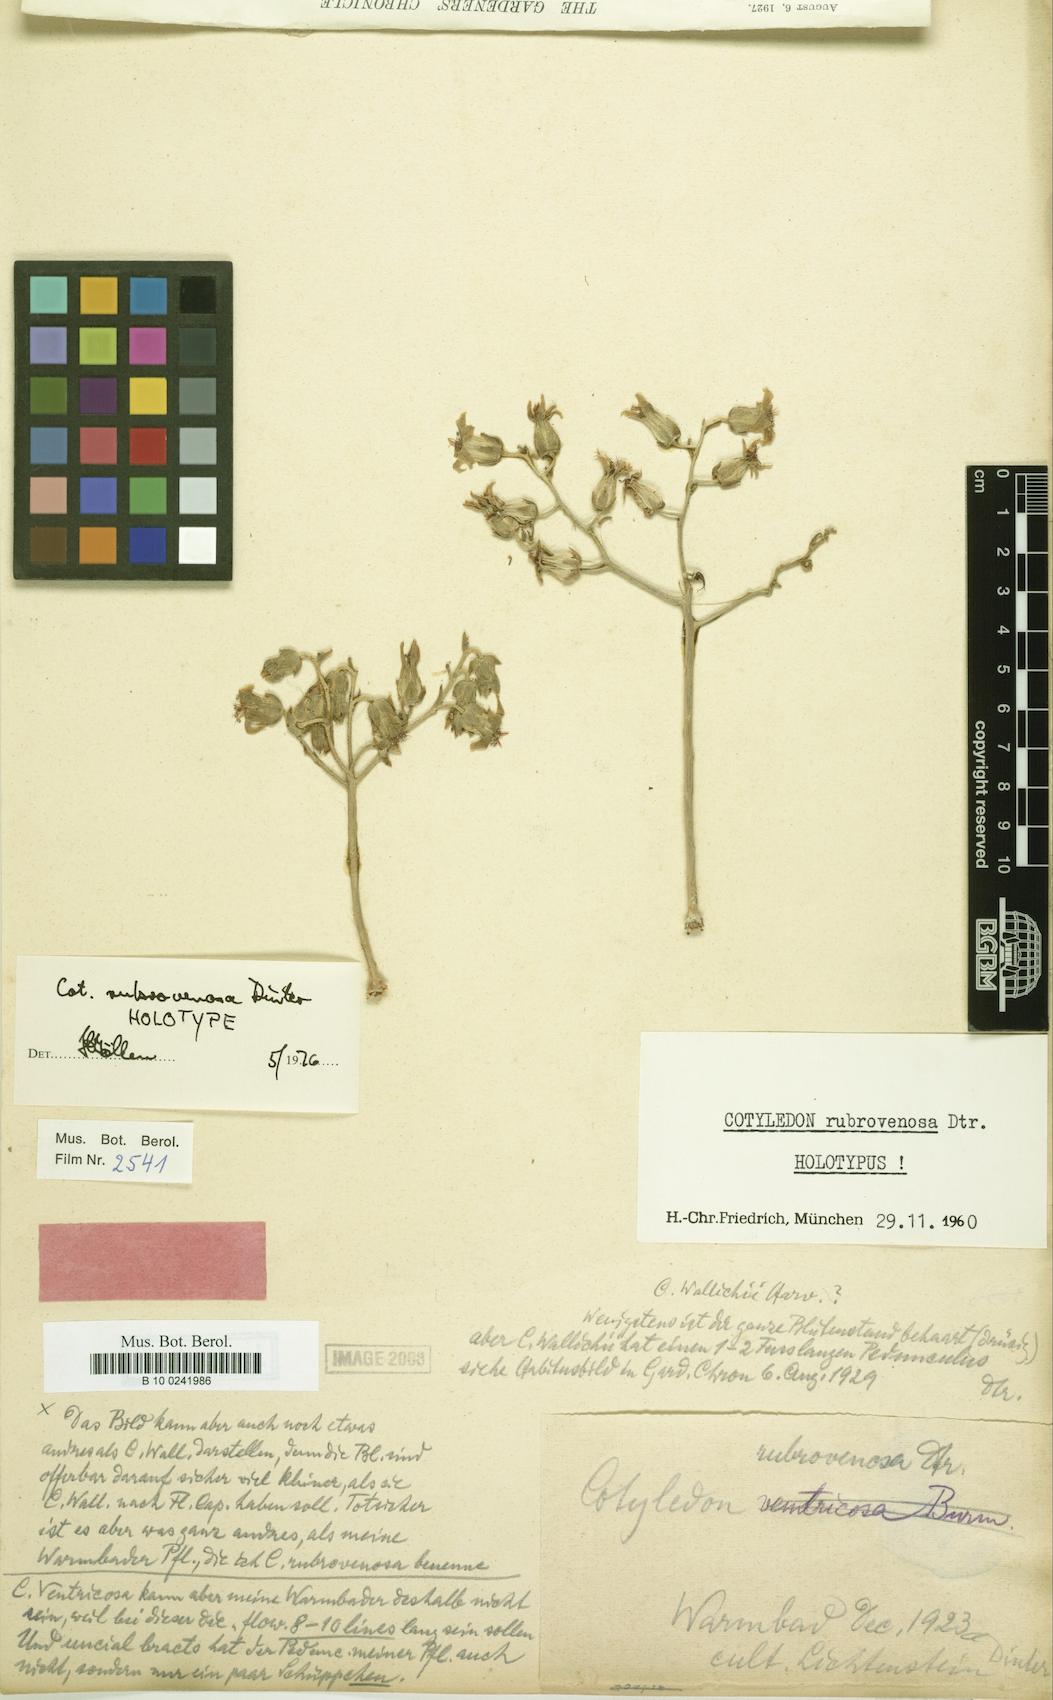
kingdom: Plantae
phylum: Tracheophyta
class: Magnoliopsida
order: Saxifragales
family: Crassulaceae
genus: Tylecodon
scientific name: Tylecodon rubrovenosus
